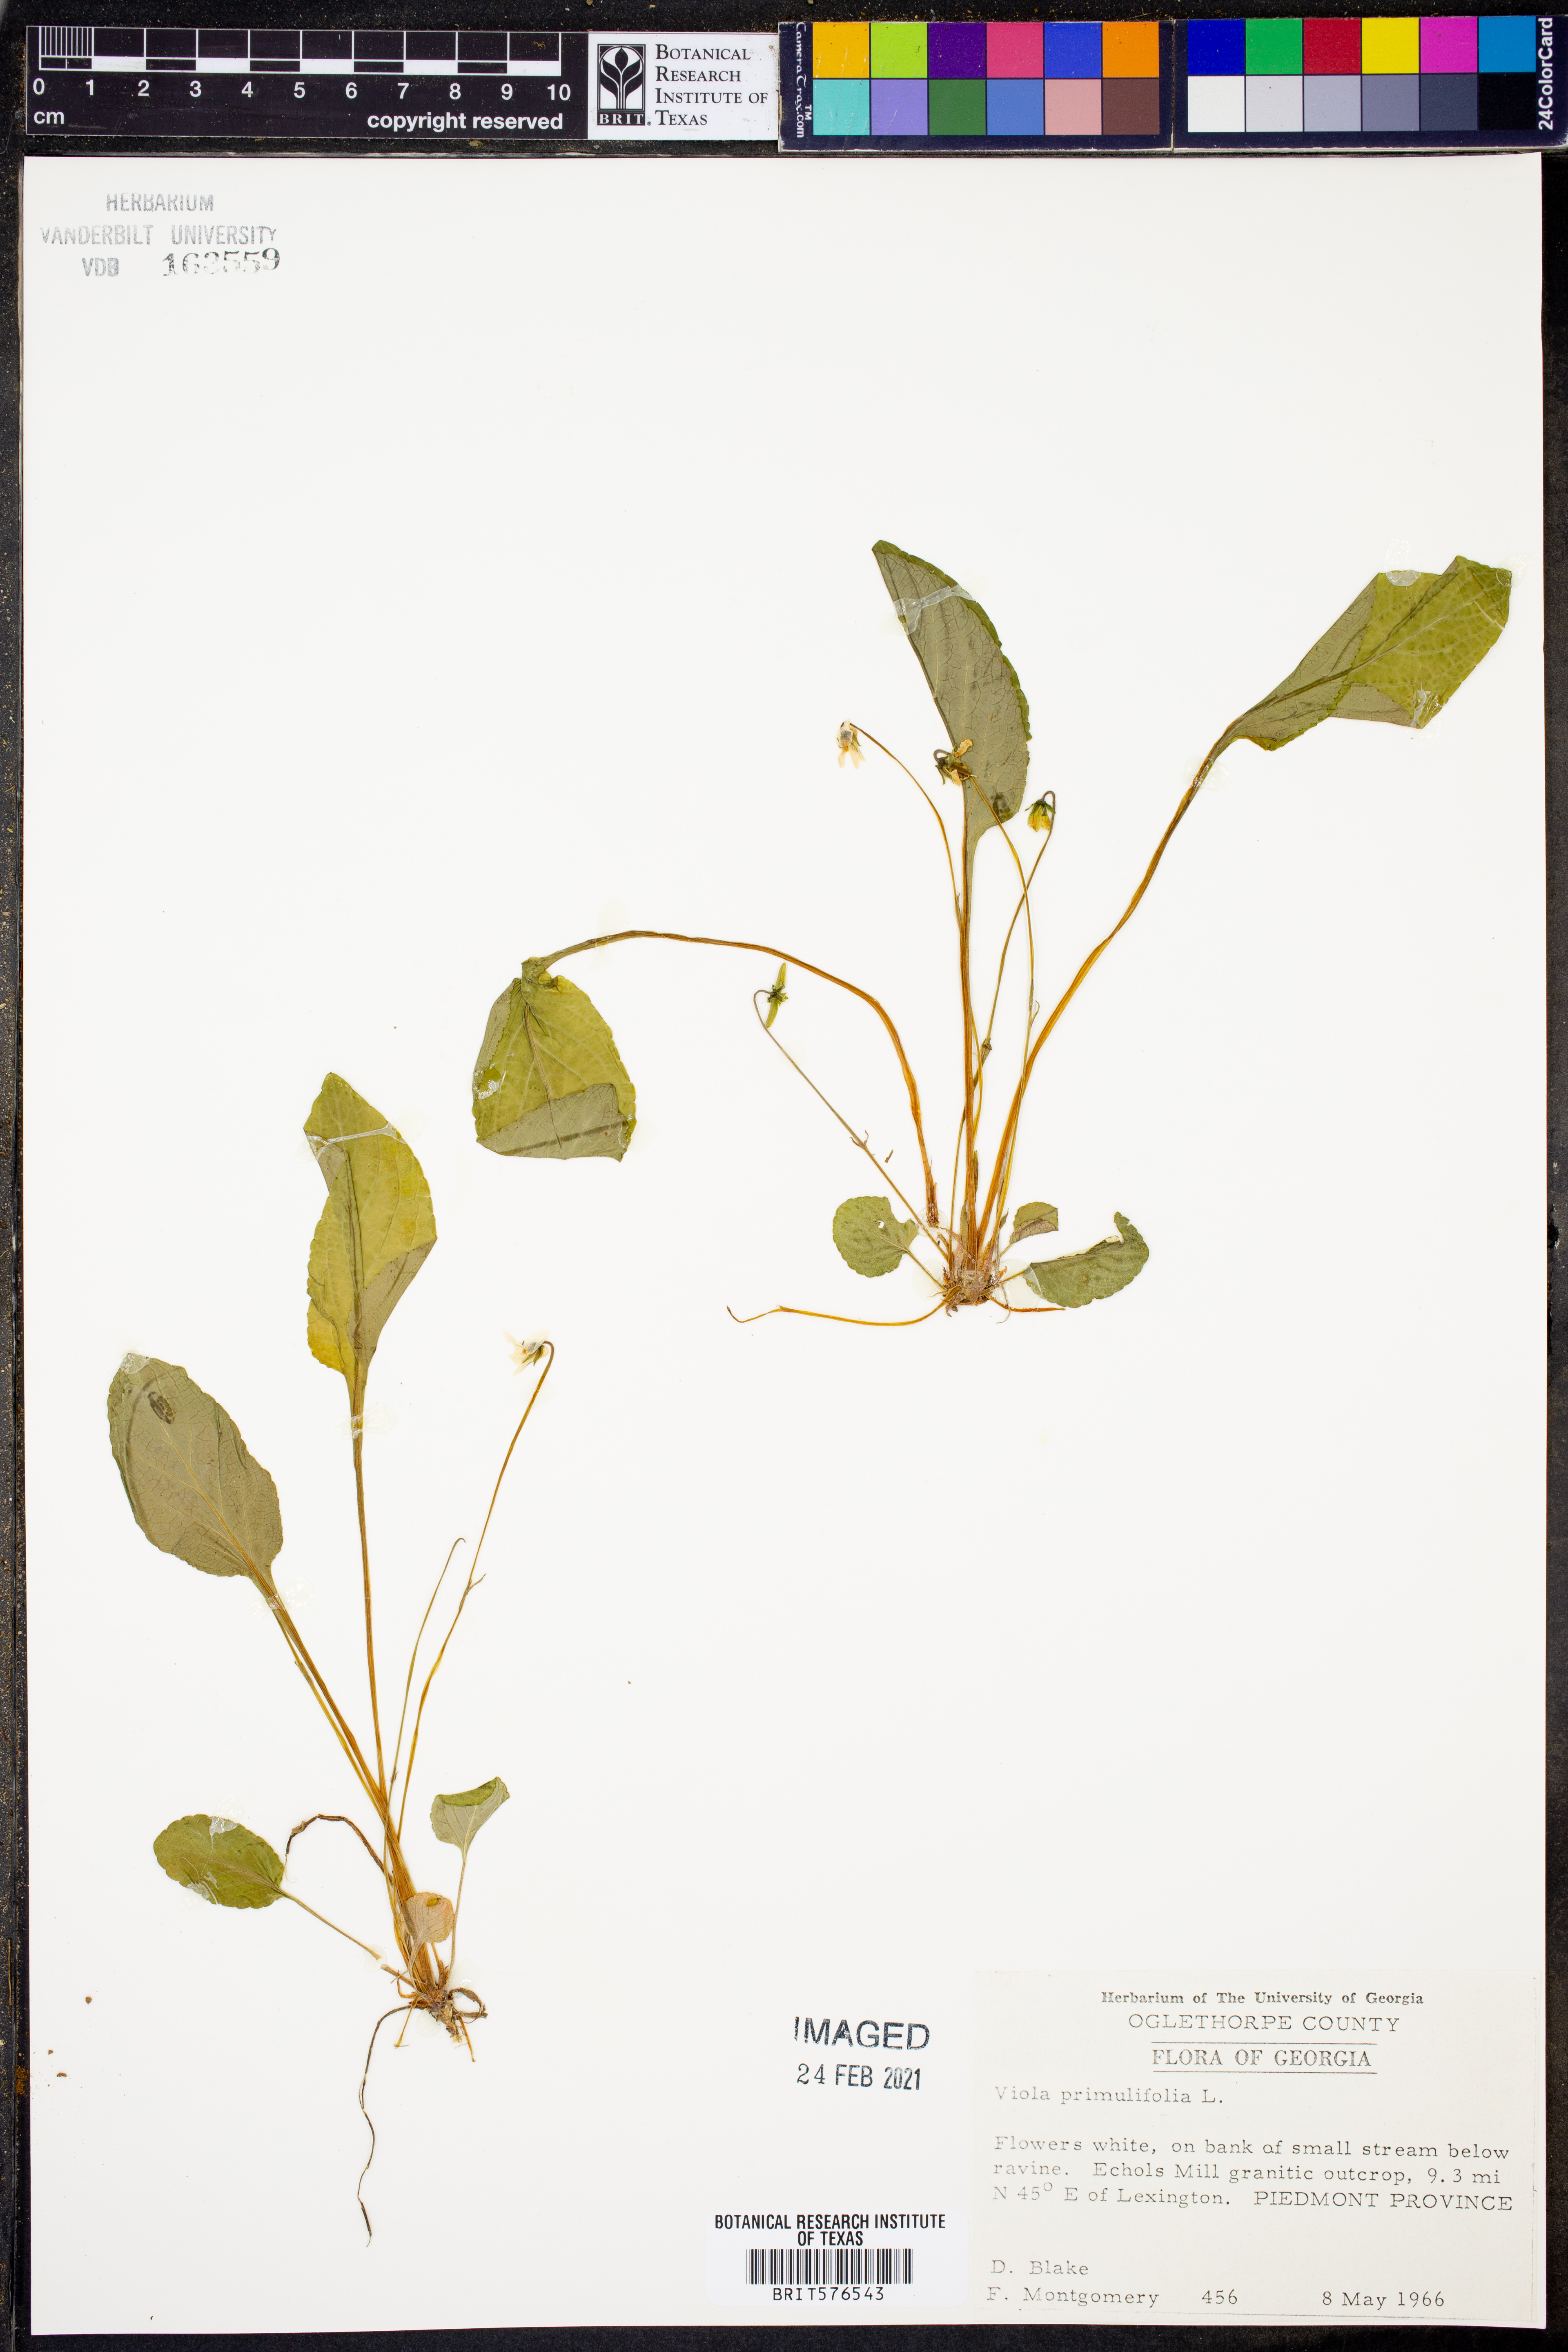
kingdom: Plantae
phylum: Tracheophyta
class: Magnoliopsida
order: Malpighiales
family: Violaceae
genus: Viola
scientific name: Viola primulifolia
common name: Primrose-leaf violet
